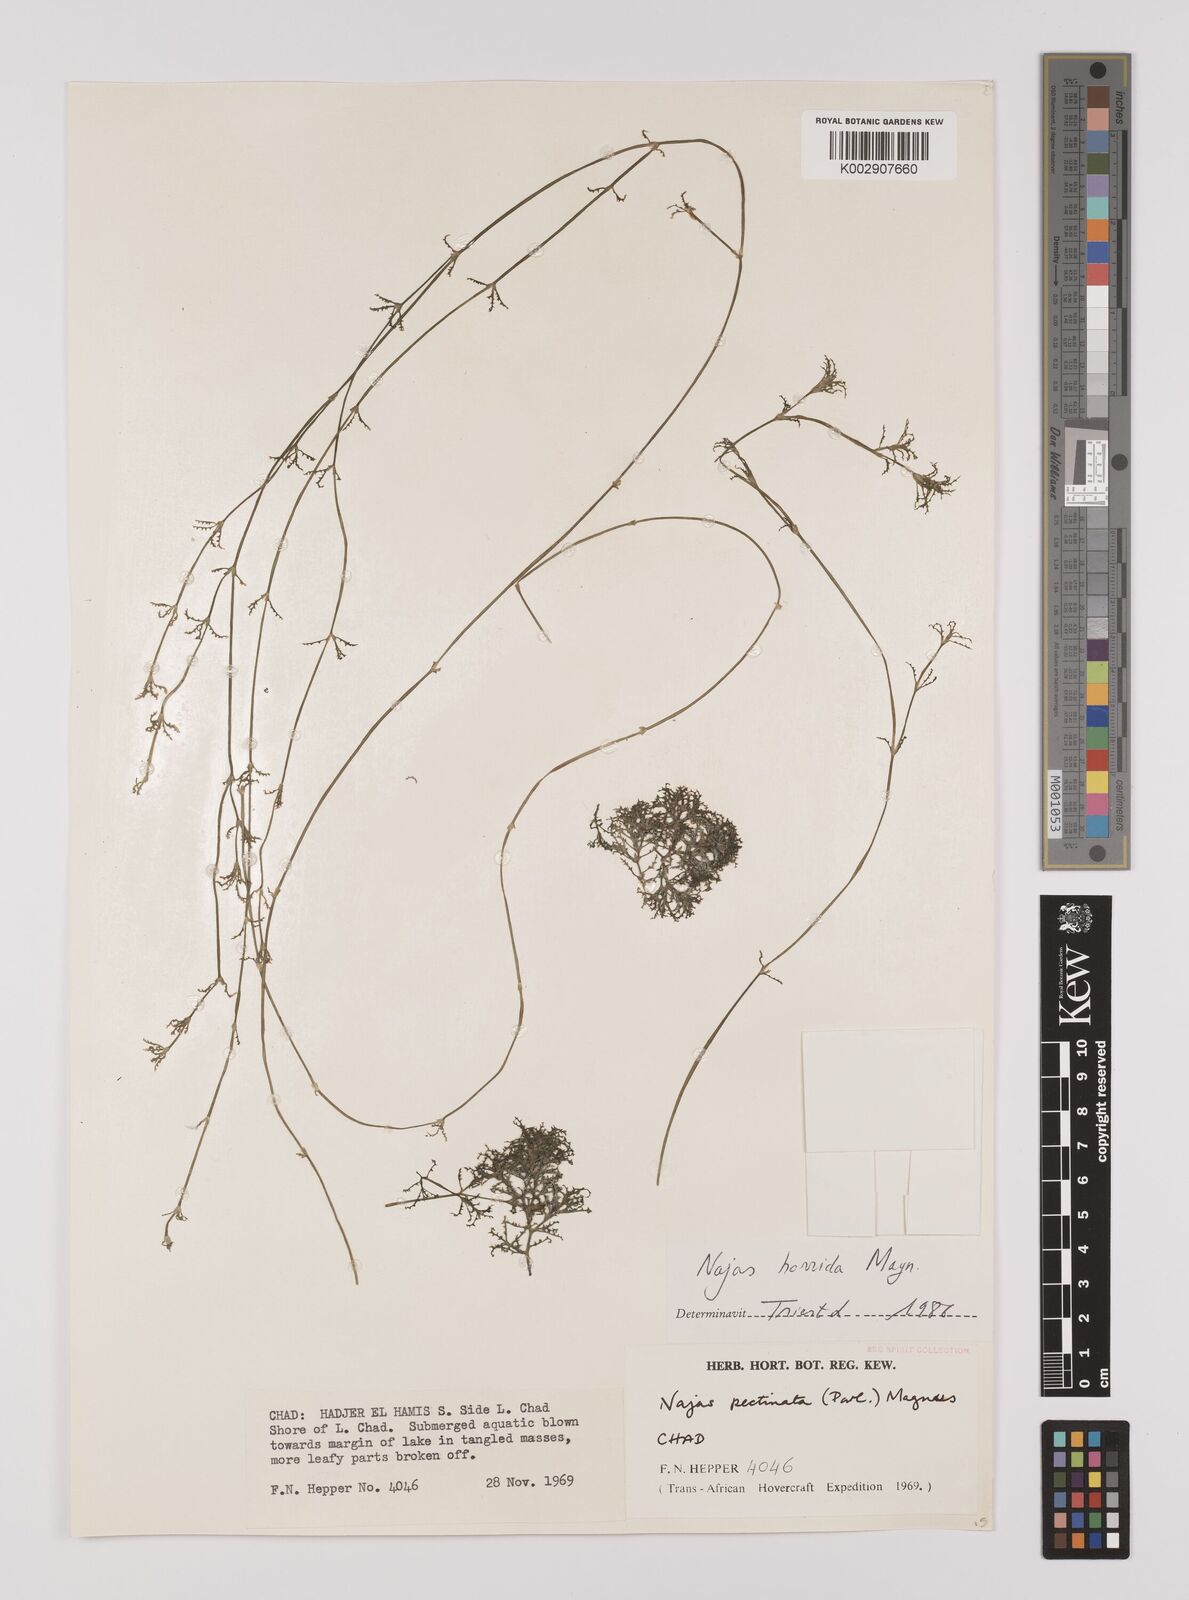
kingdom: Plantae
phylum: Tracheophyta
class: Liliopsida
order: Alismatales
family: Hydrocharitaceae
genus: Najas
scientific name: Najas pectinata
